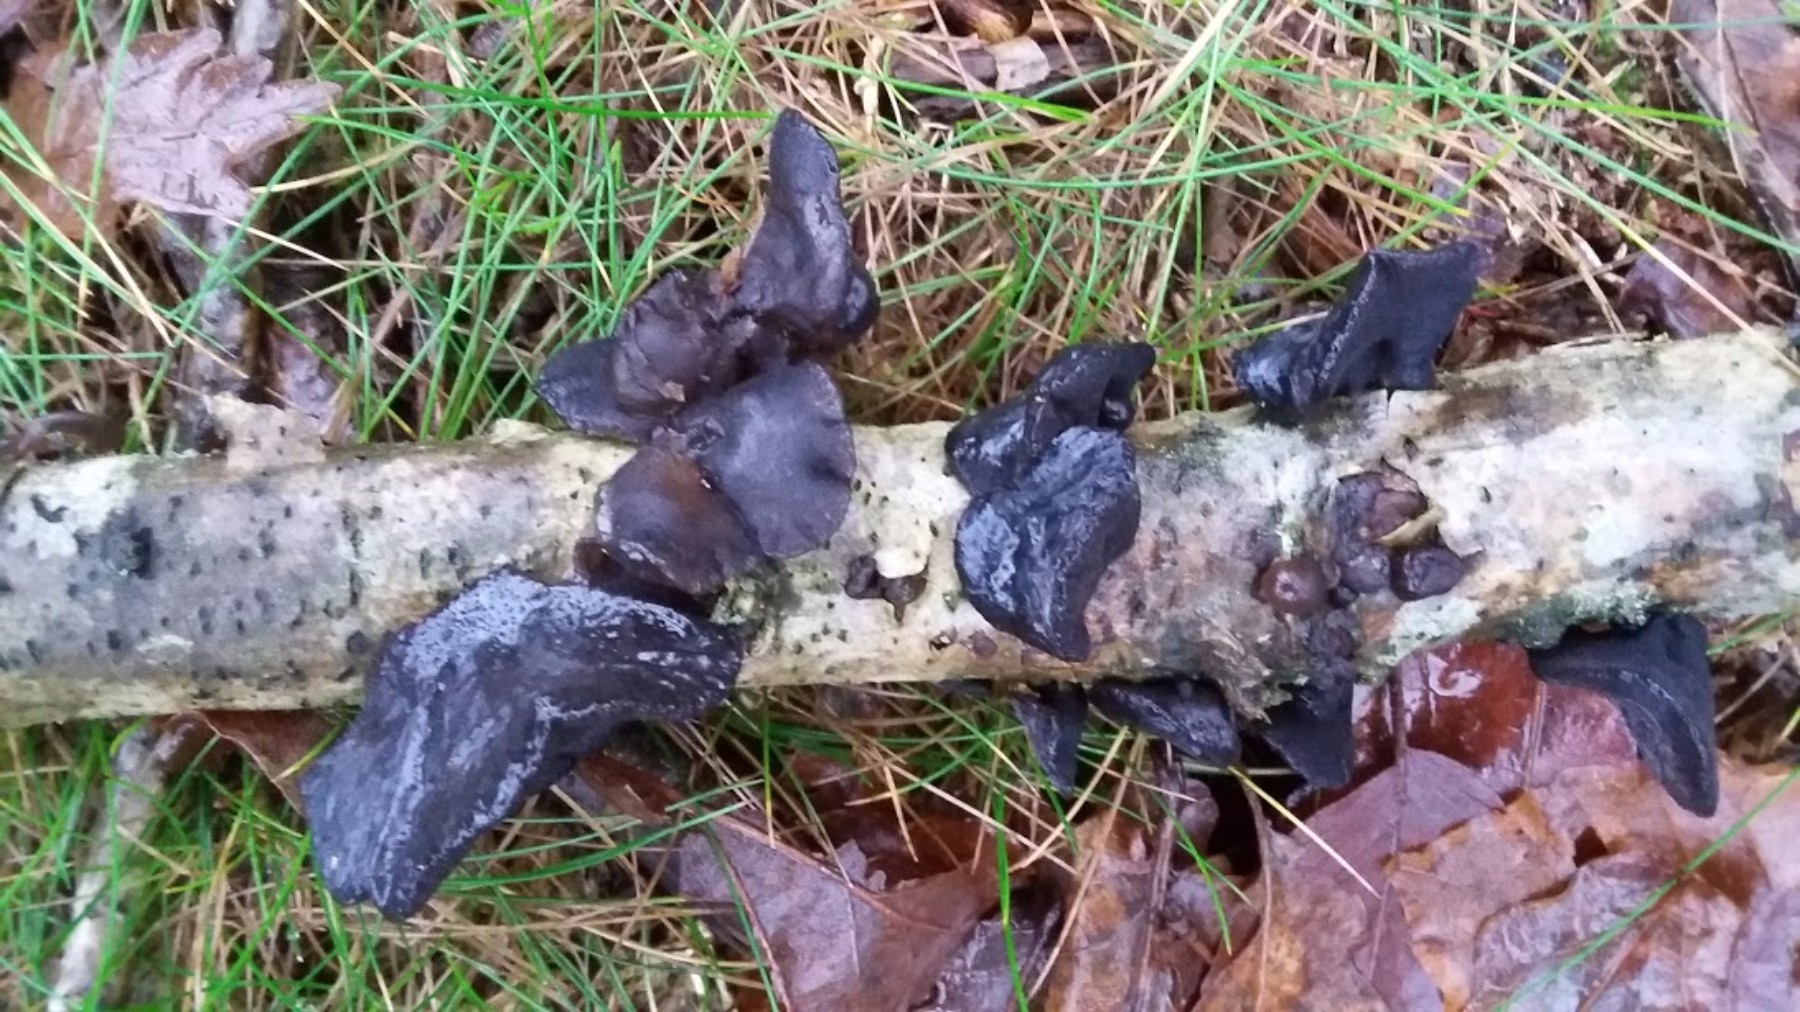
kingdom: Fungi
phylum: Basidiomycota
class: Agaricomycetes
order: Auriculariales
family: Auriculariaceae
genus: Exidia
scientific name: Exidia glandulosa
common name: ege-bævretop
